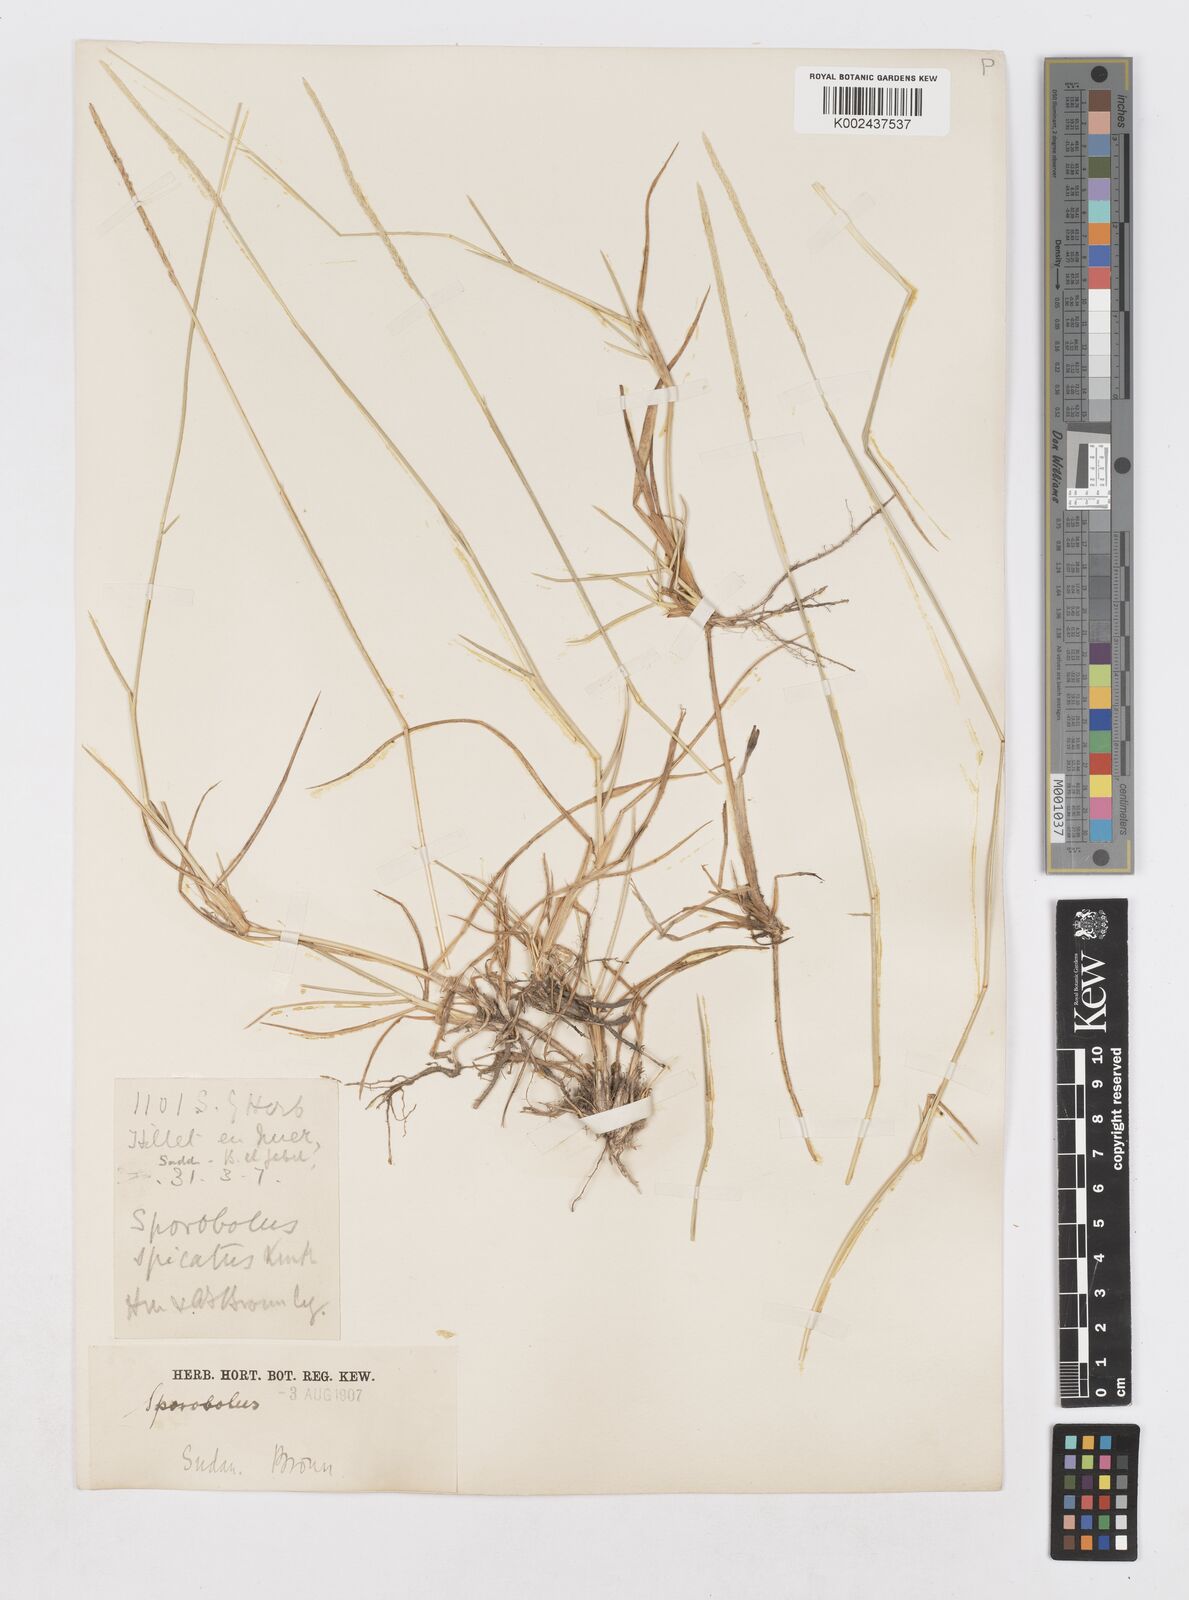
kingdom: Plantae
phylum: Tracheophyta
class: Liliopsida
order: Poales
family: Poaceae
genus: Sporobolus
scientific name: Sporobolus spicatus
